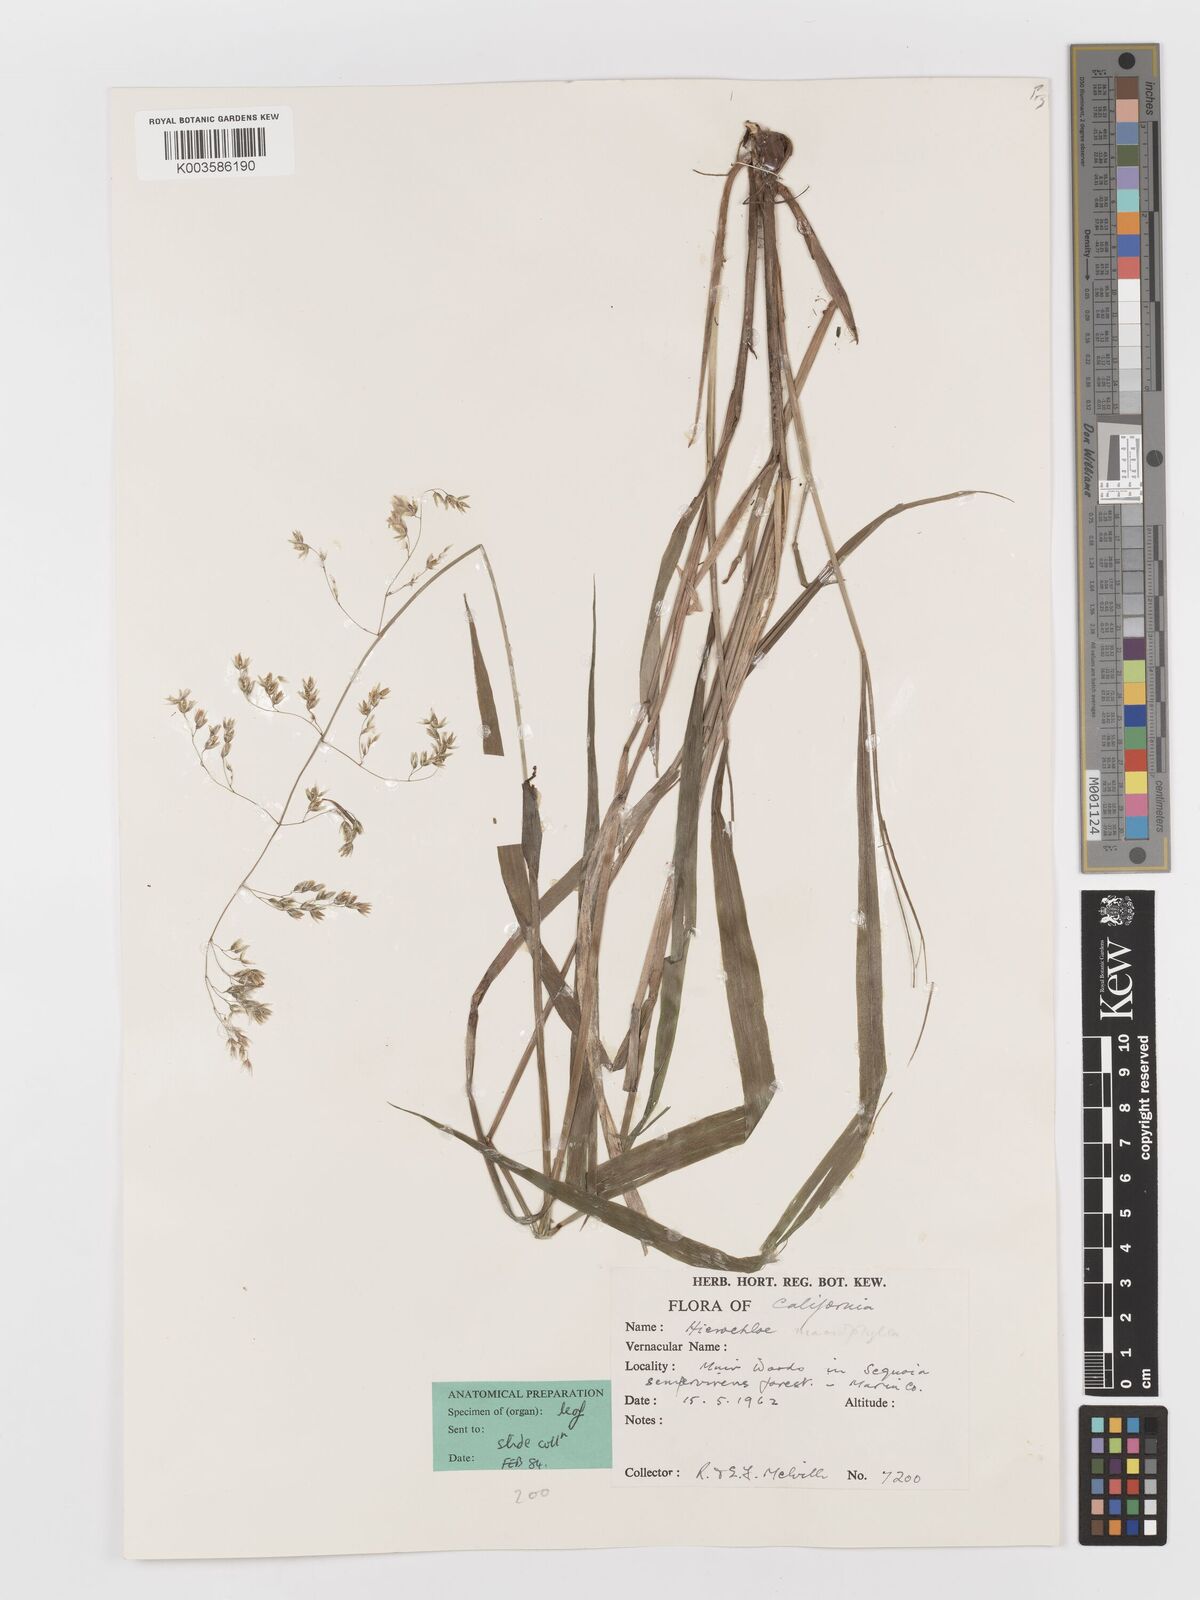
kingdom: Plantae
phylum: Tracheophyta
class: Liliopsida
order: Poales
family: Poaceae
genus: Anthoxanthum
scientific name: Anthoxanthum occidentale
